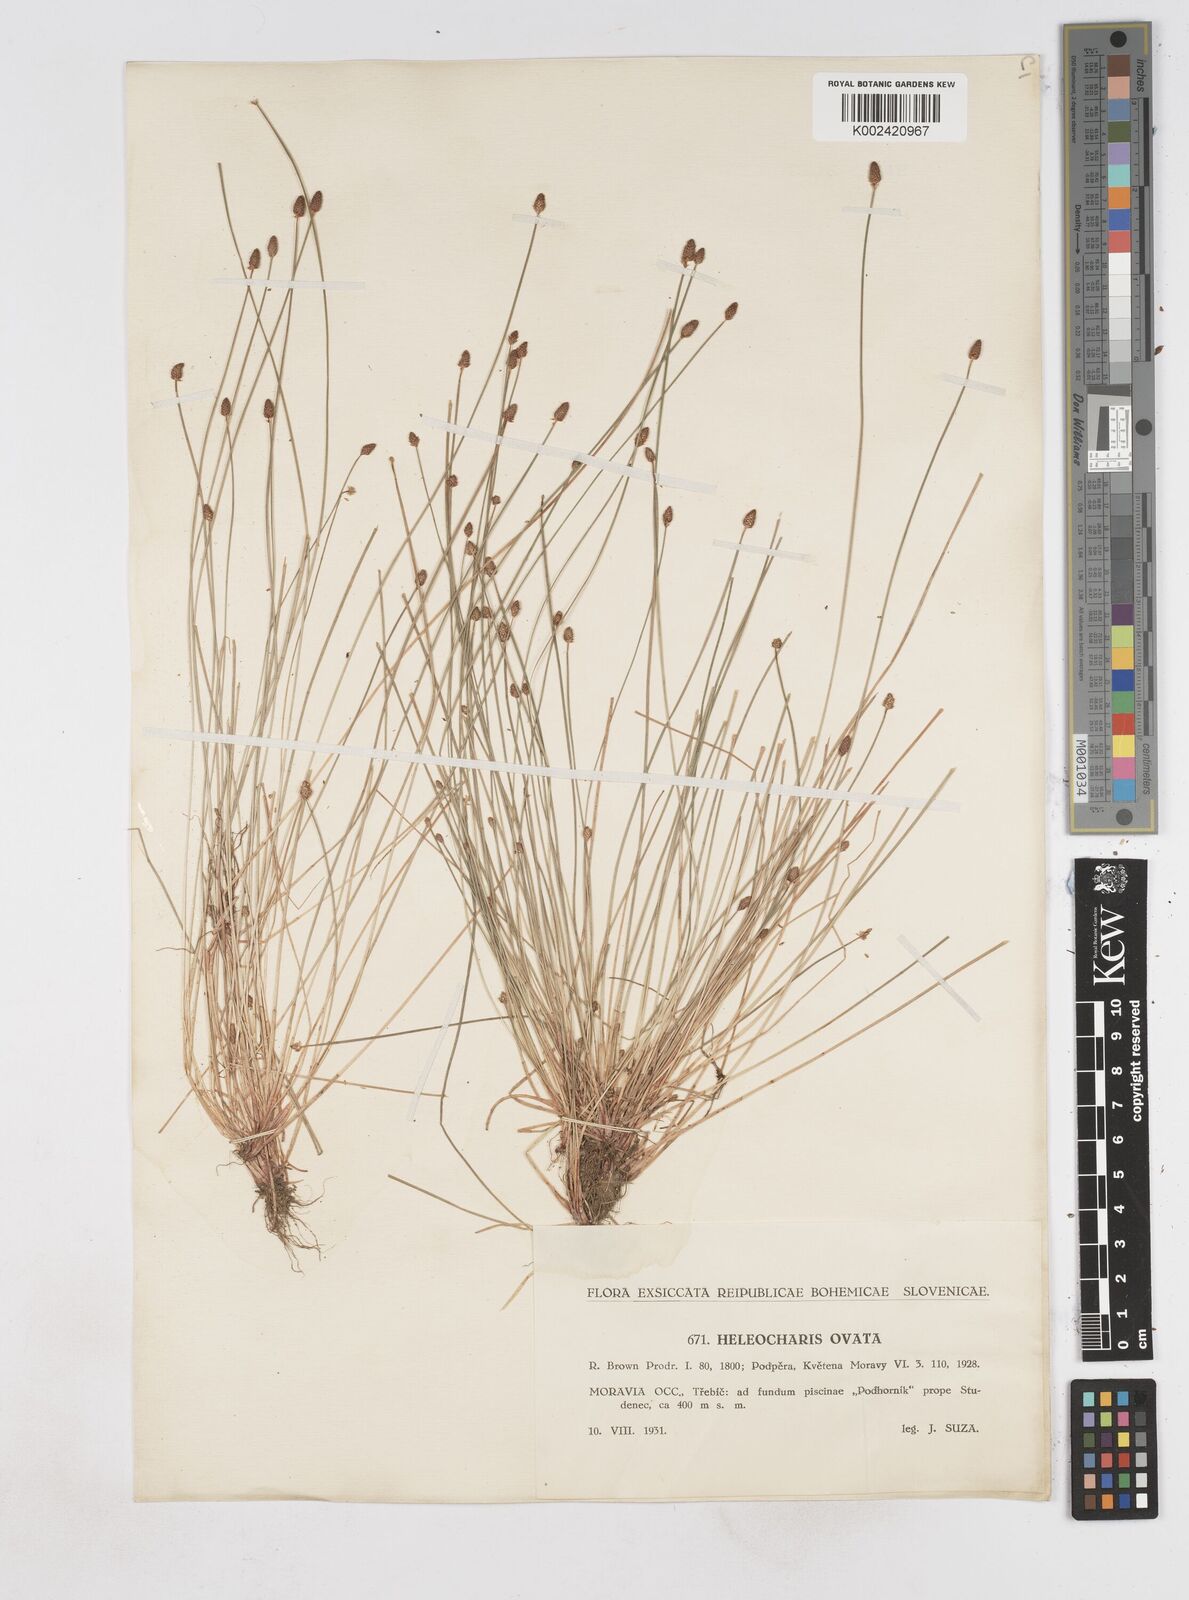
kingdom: Plantae
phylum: Tracheophyta
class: Liliopsida
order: Poales
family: Cyperaceae
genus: Eleocharis
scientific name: Eleocharis ovata
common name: Oval spike-rush
